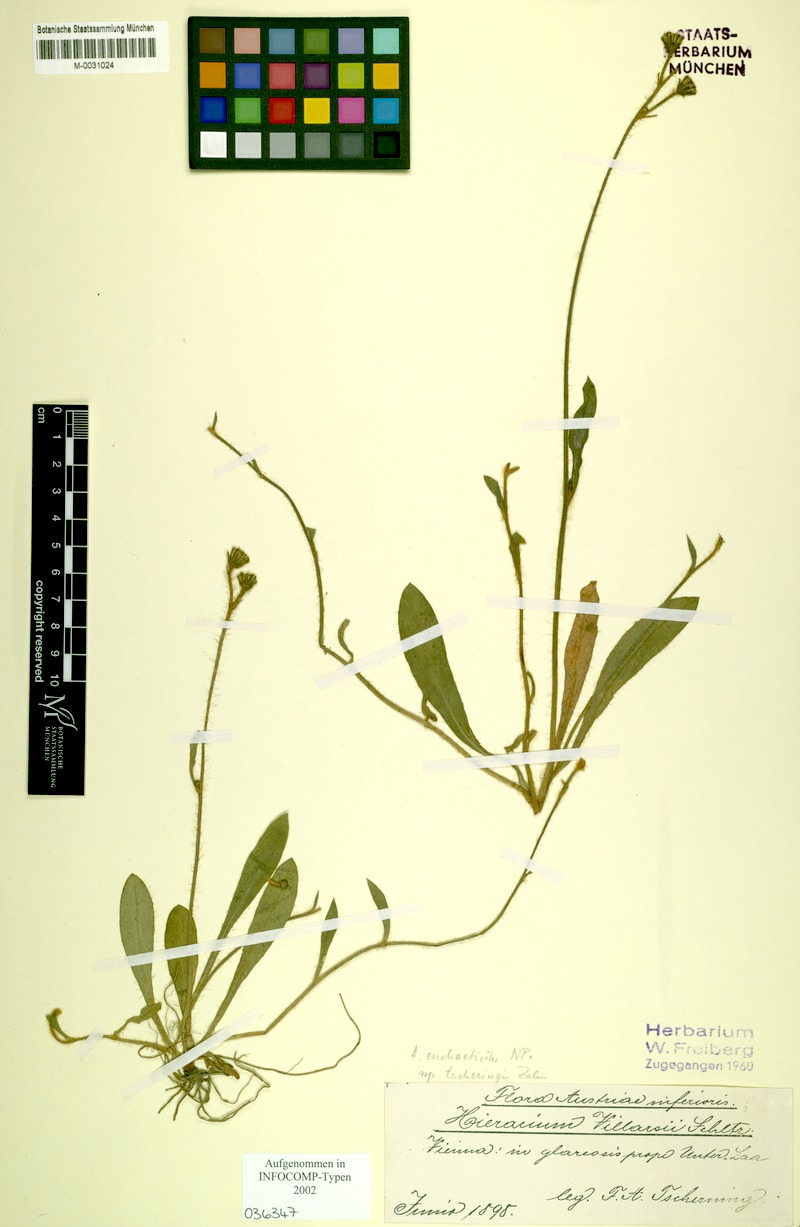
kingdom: Plantae
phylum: Tracheophyta
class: Magnoliopsida
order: Asterales
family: Asteraceae
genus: Pilosella
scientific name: Pilosella euchaetia
